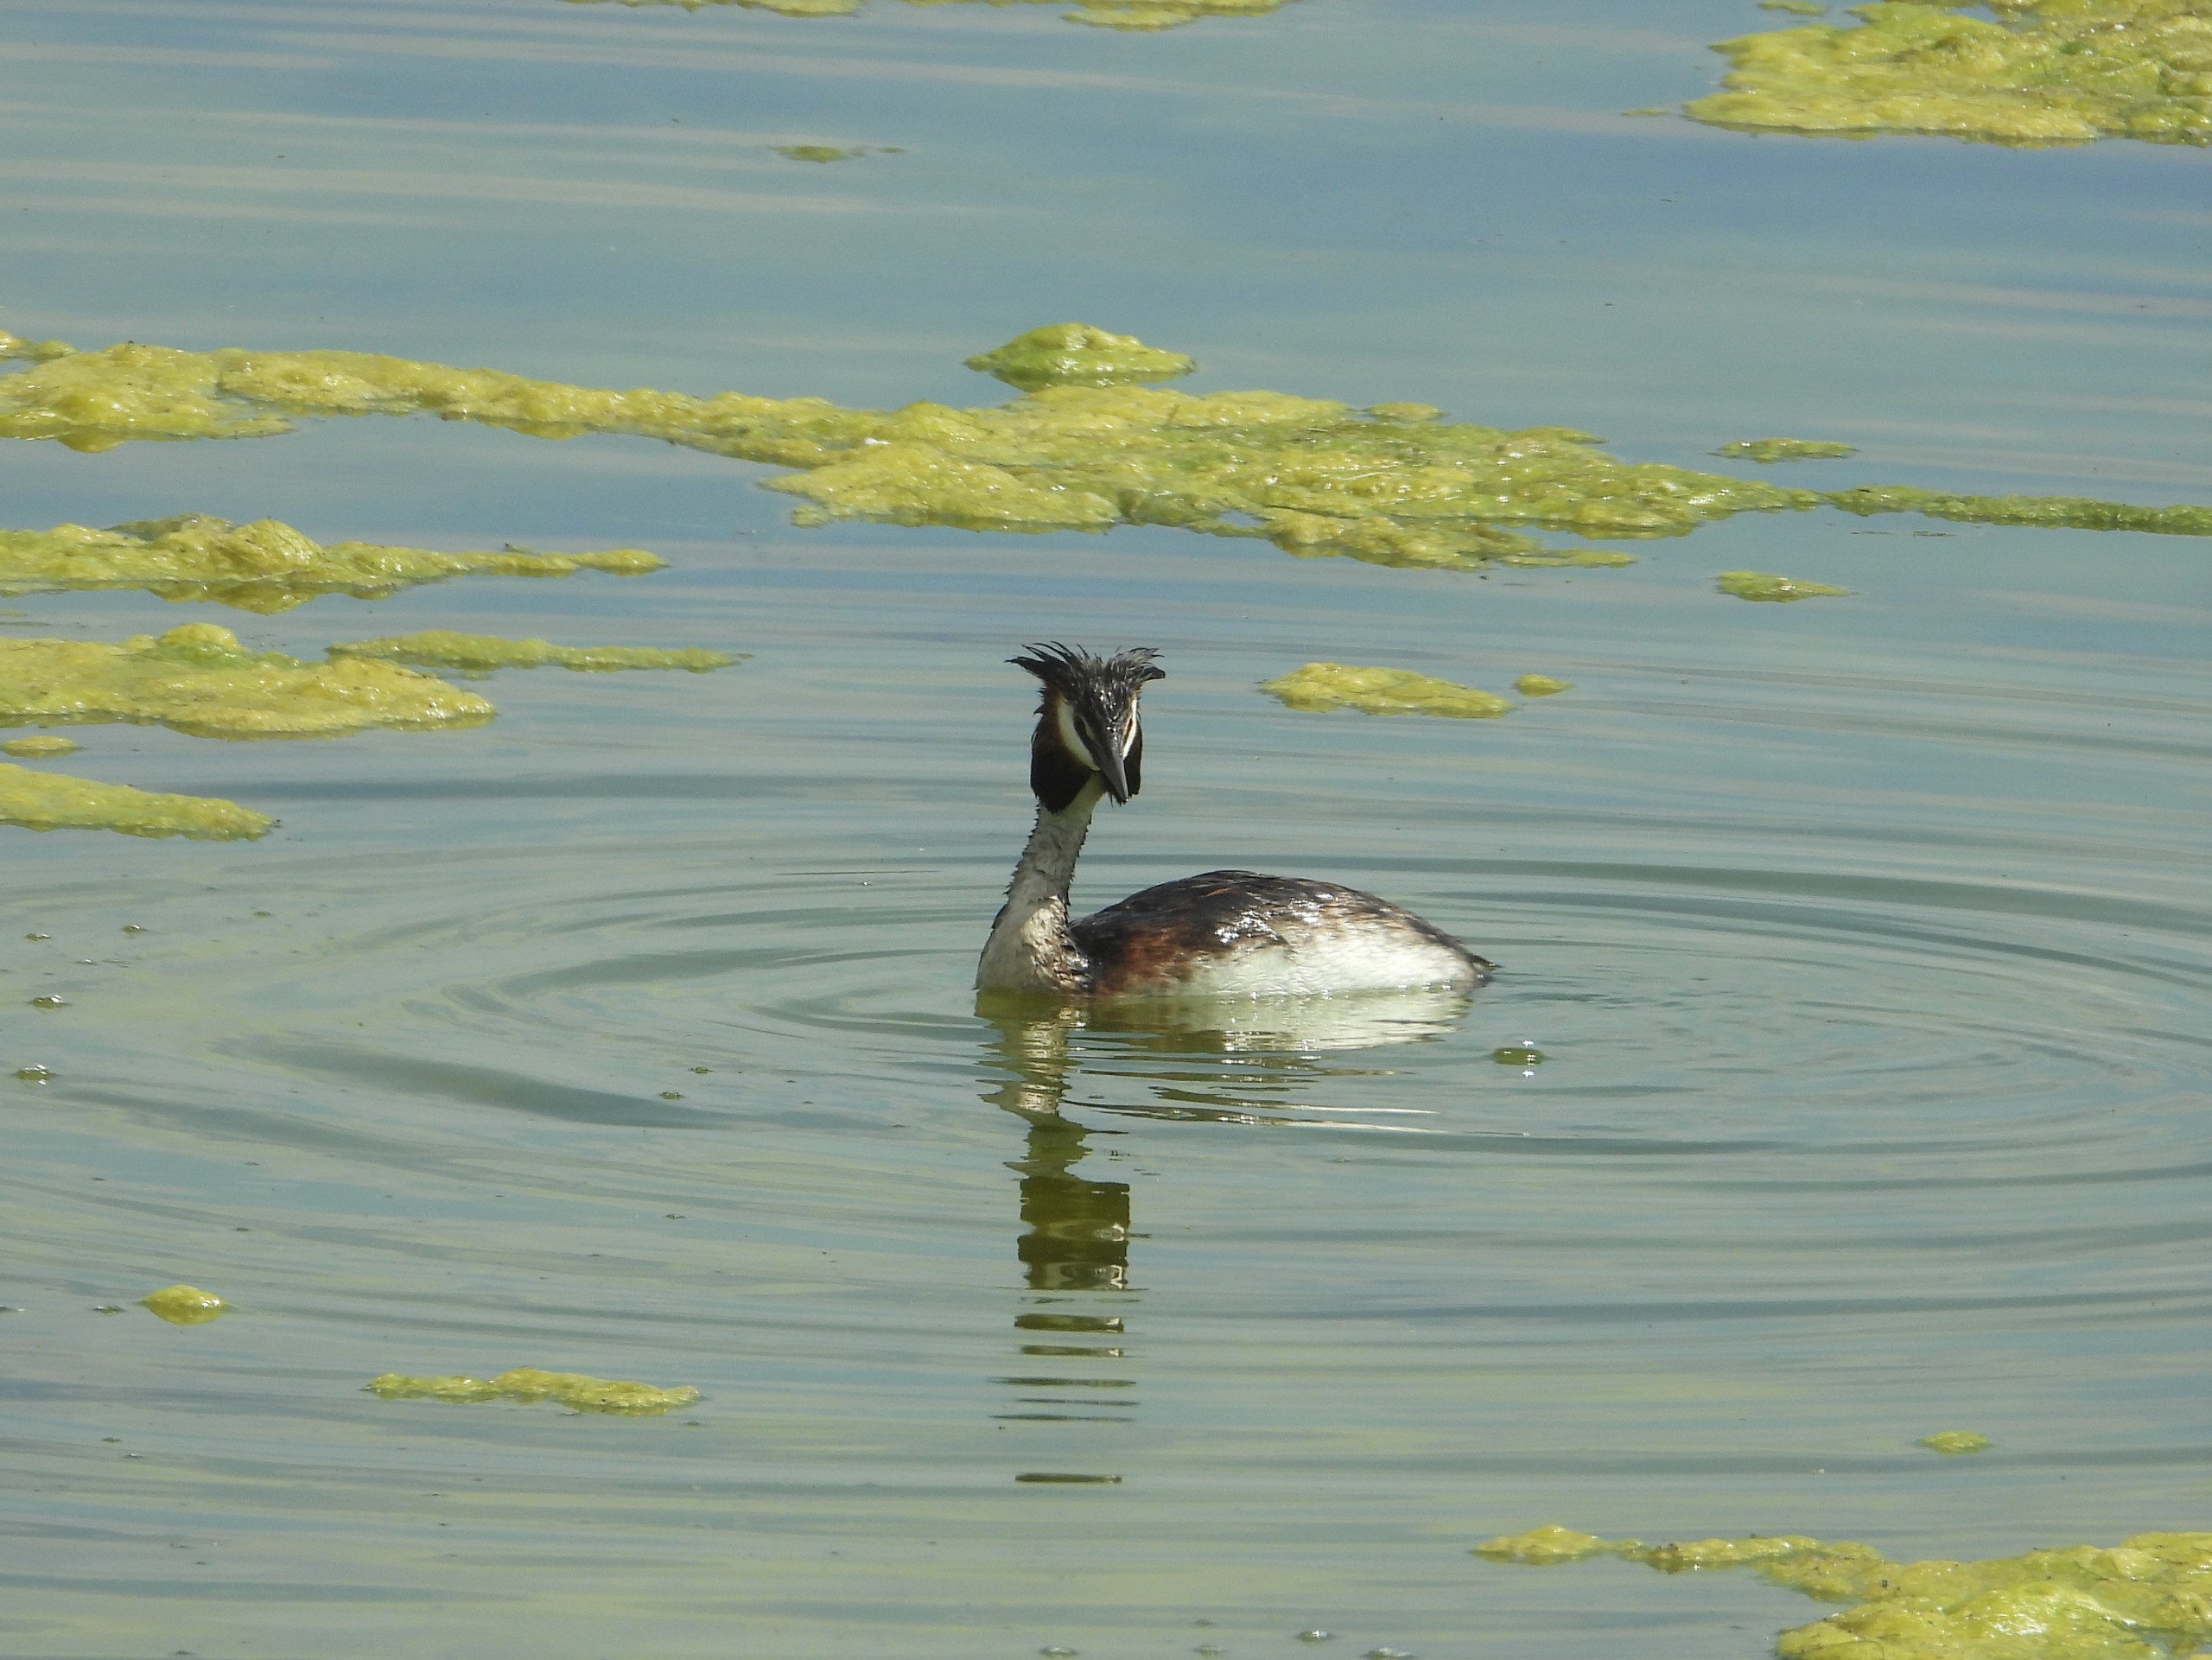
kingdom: Animalia
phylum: Chordata
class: Aves
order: Podicipediformes
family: Podicipedidae
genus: Podiceps
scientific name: Podiceps cristatus
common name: Toppet lappedykker
